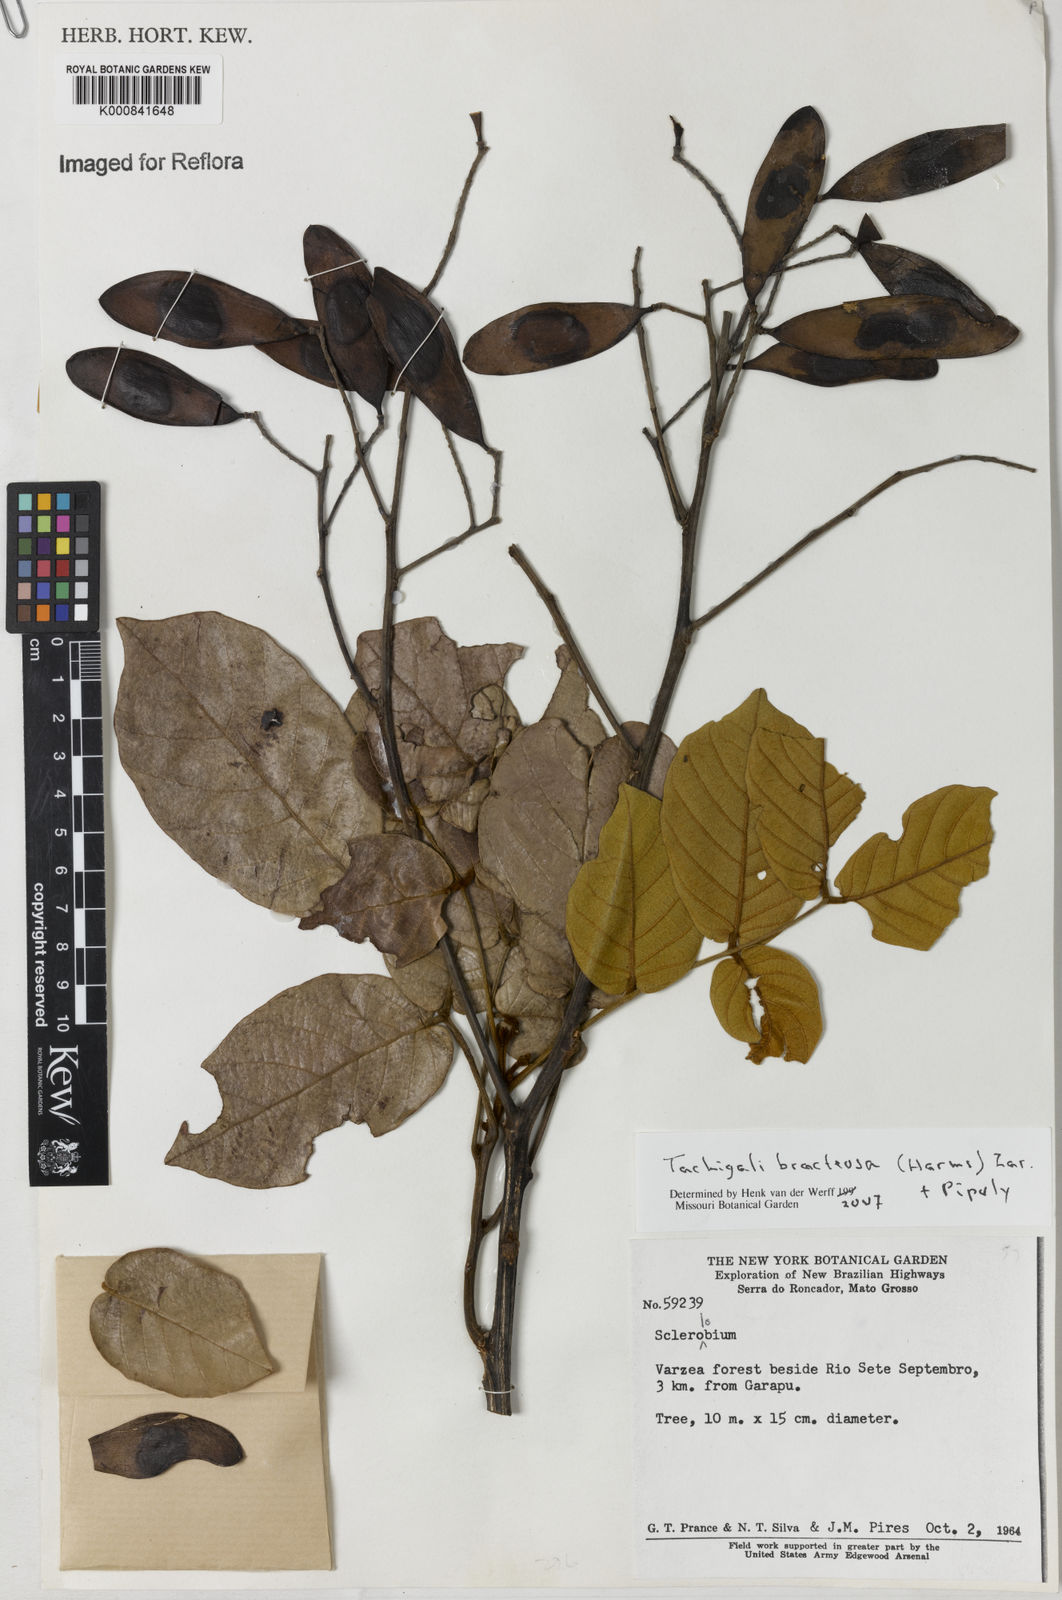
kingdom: Plantae
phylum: Tracheophyta
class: Magnoliopsida
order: Fabales
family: Fabaceae
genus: Tachigali
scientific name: Tachigali bracteosa
